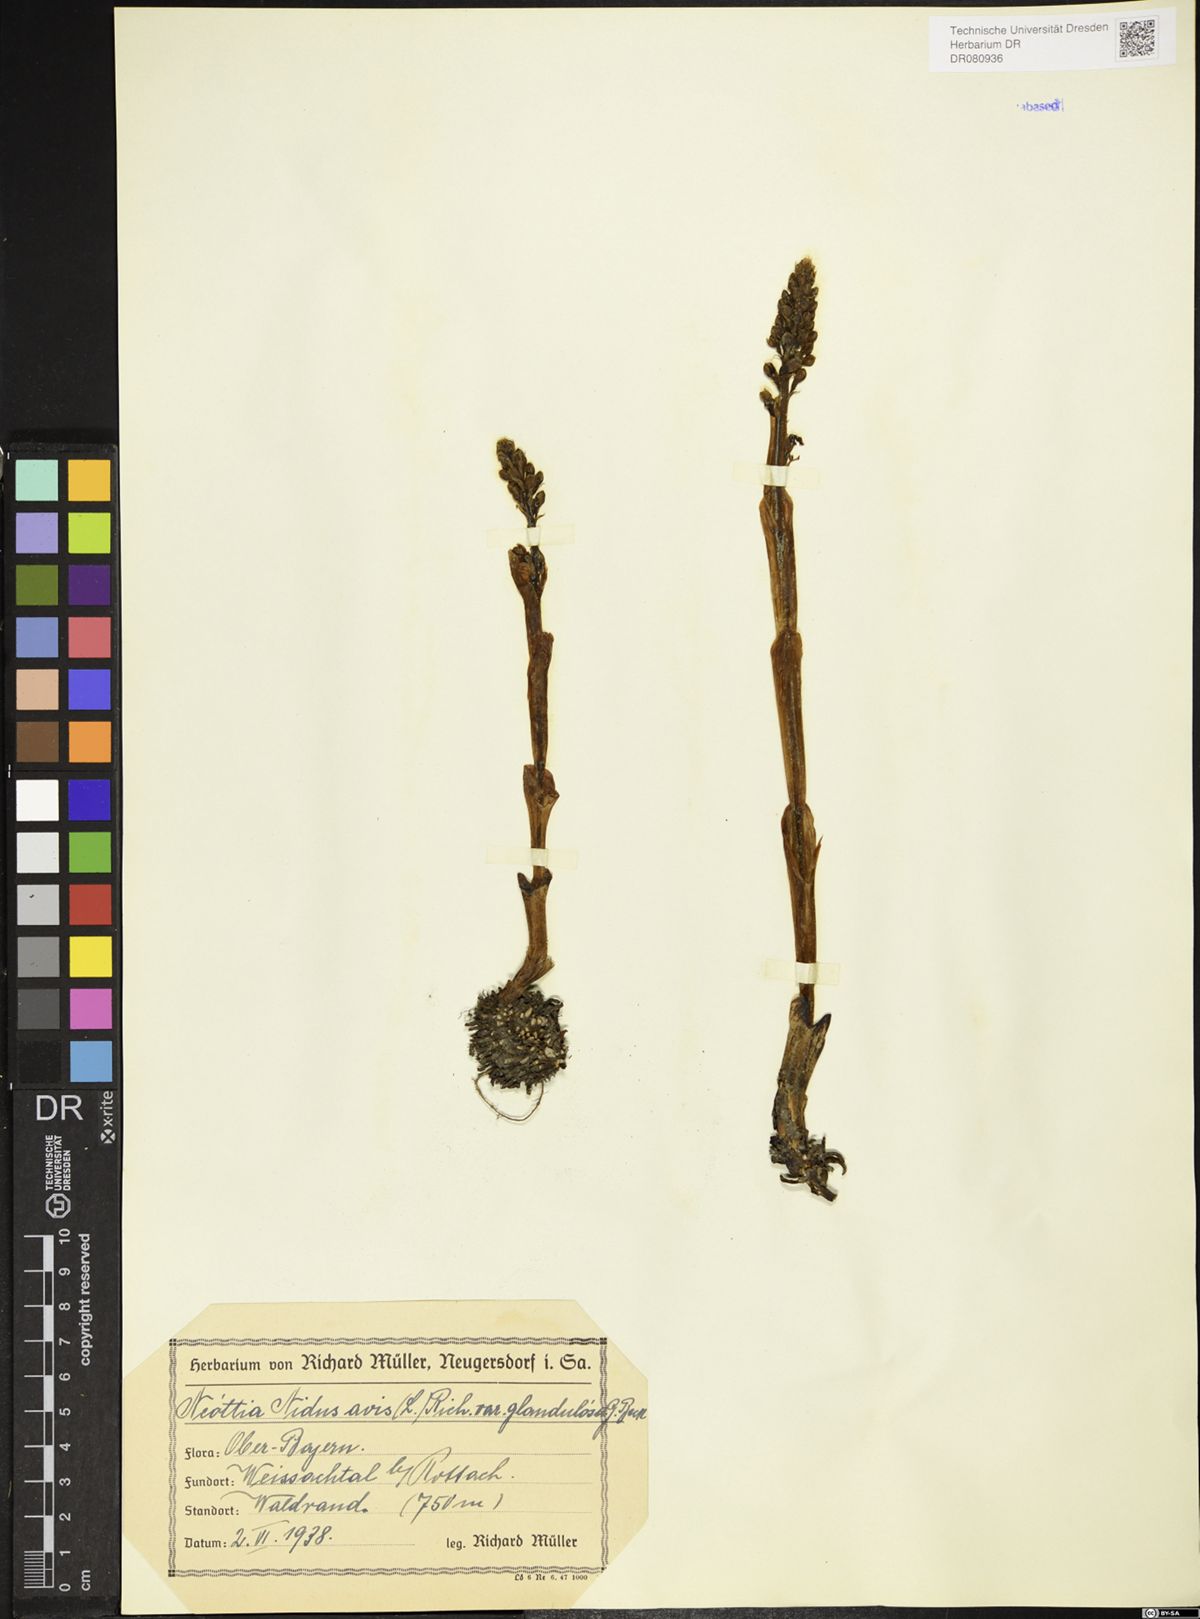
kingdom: Plantae
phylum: Tracheophyta
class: Liliopsida
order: Asparagales
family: Orchidaceae
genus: Neottia
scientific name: Neottia nidus-avis
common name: Bird's-nest orchid
